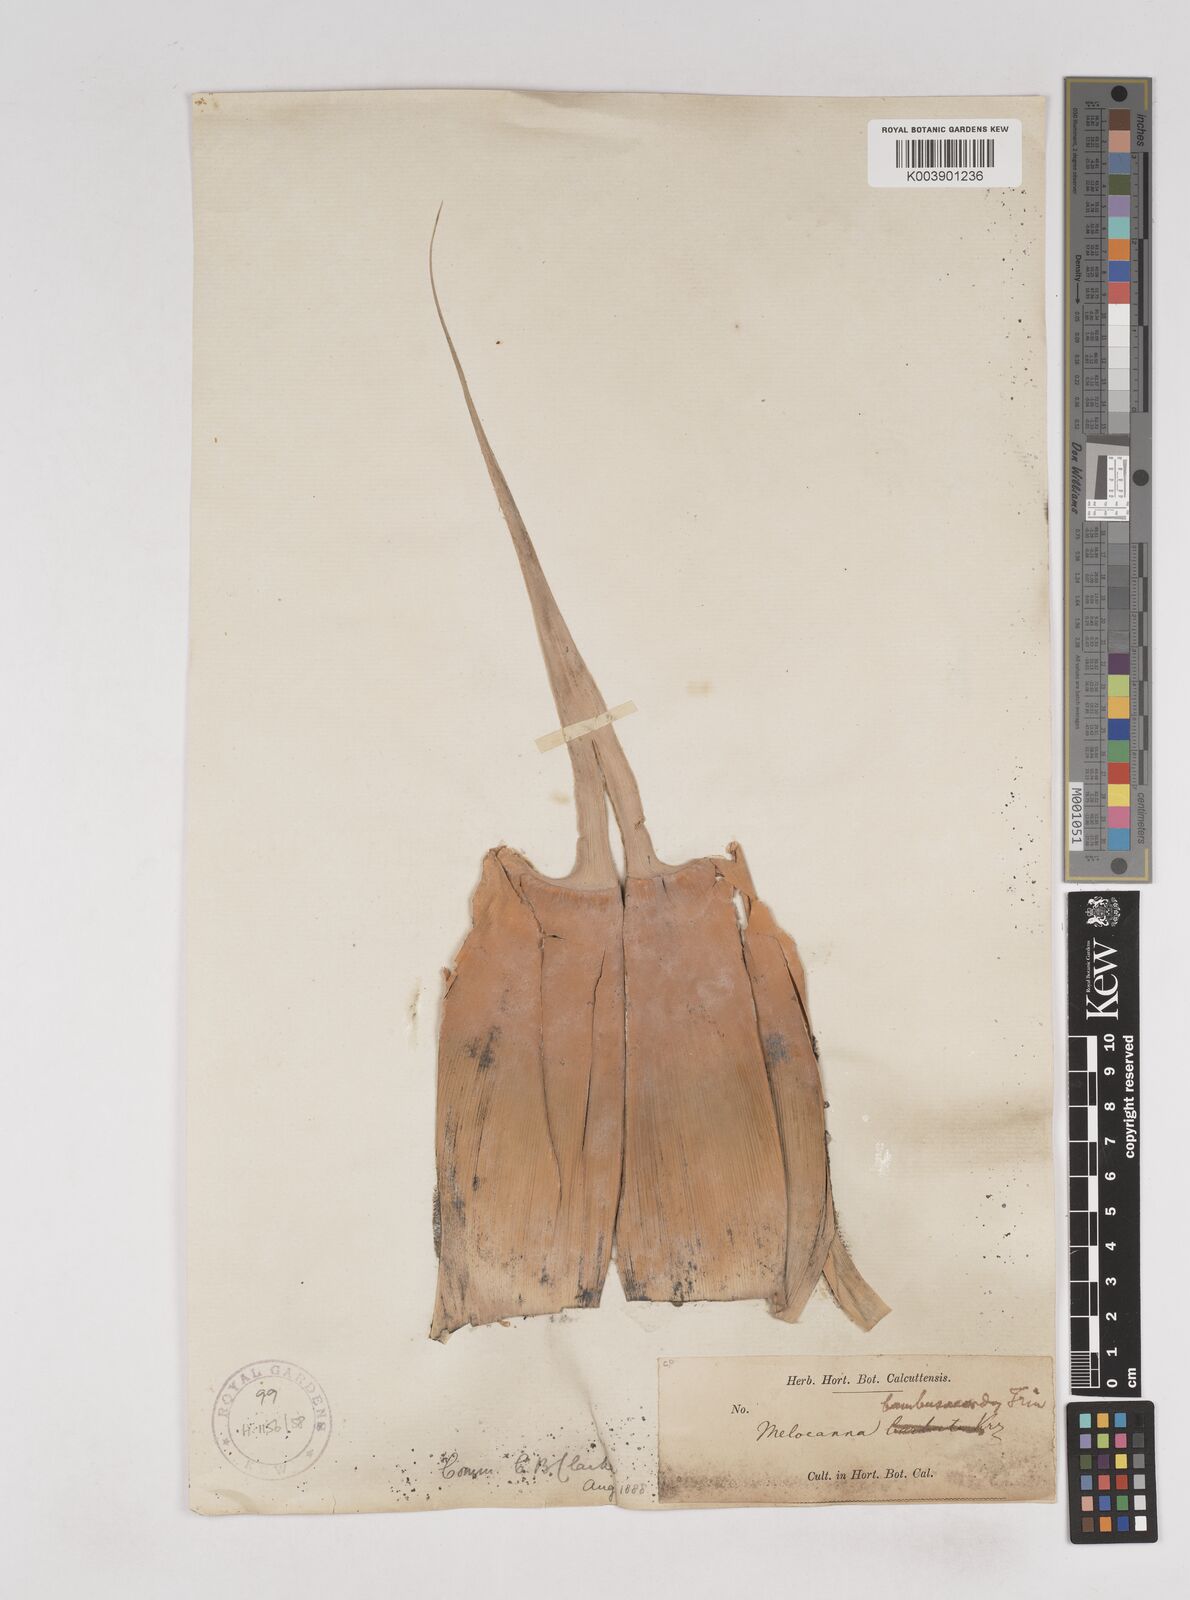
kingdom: Plantae
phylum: Tracheophyta
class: Liliopsida
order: Poales
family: Poaceae
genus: Melocanna
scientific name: Melocanna baccifera
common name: Berry bamboo
